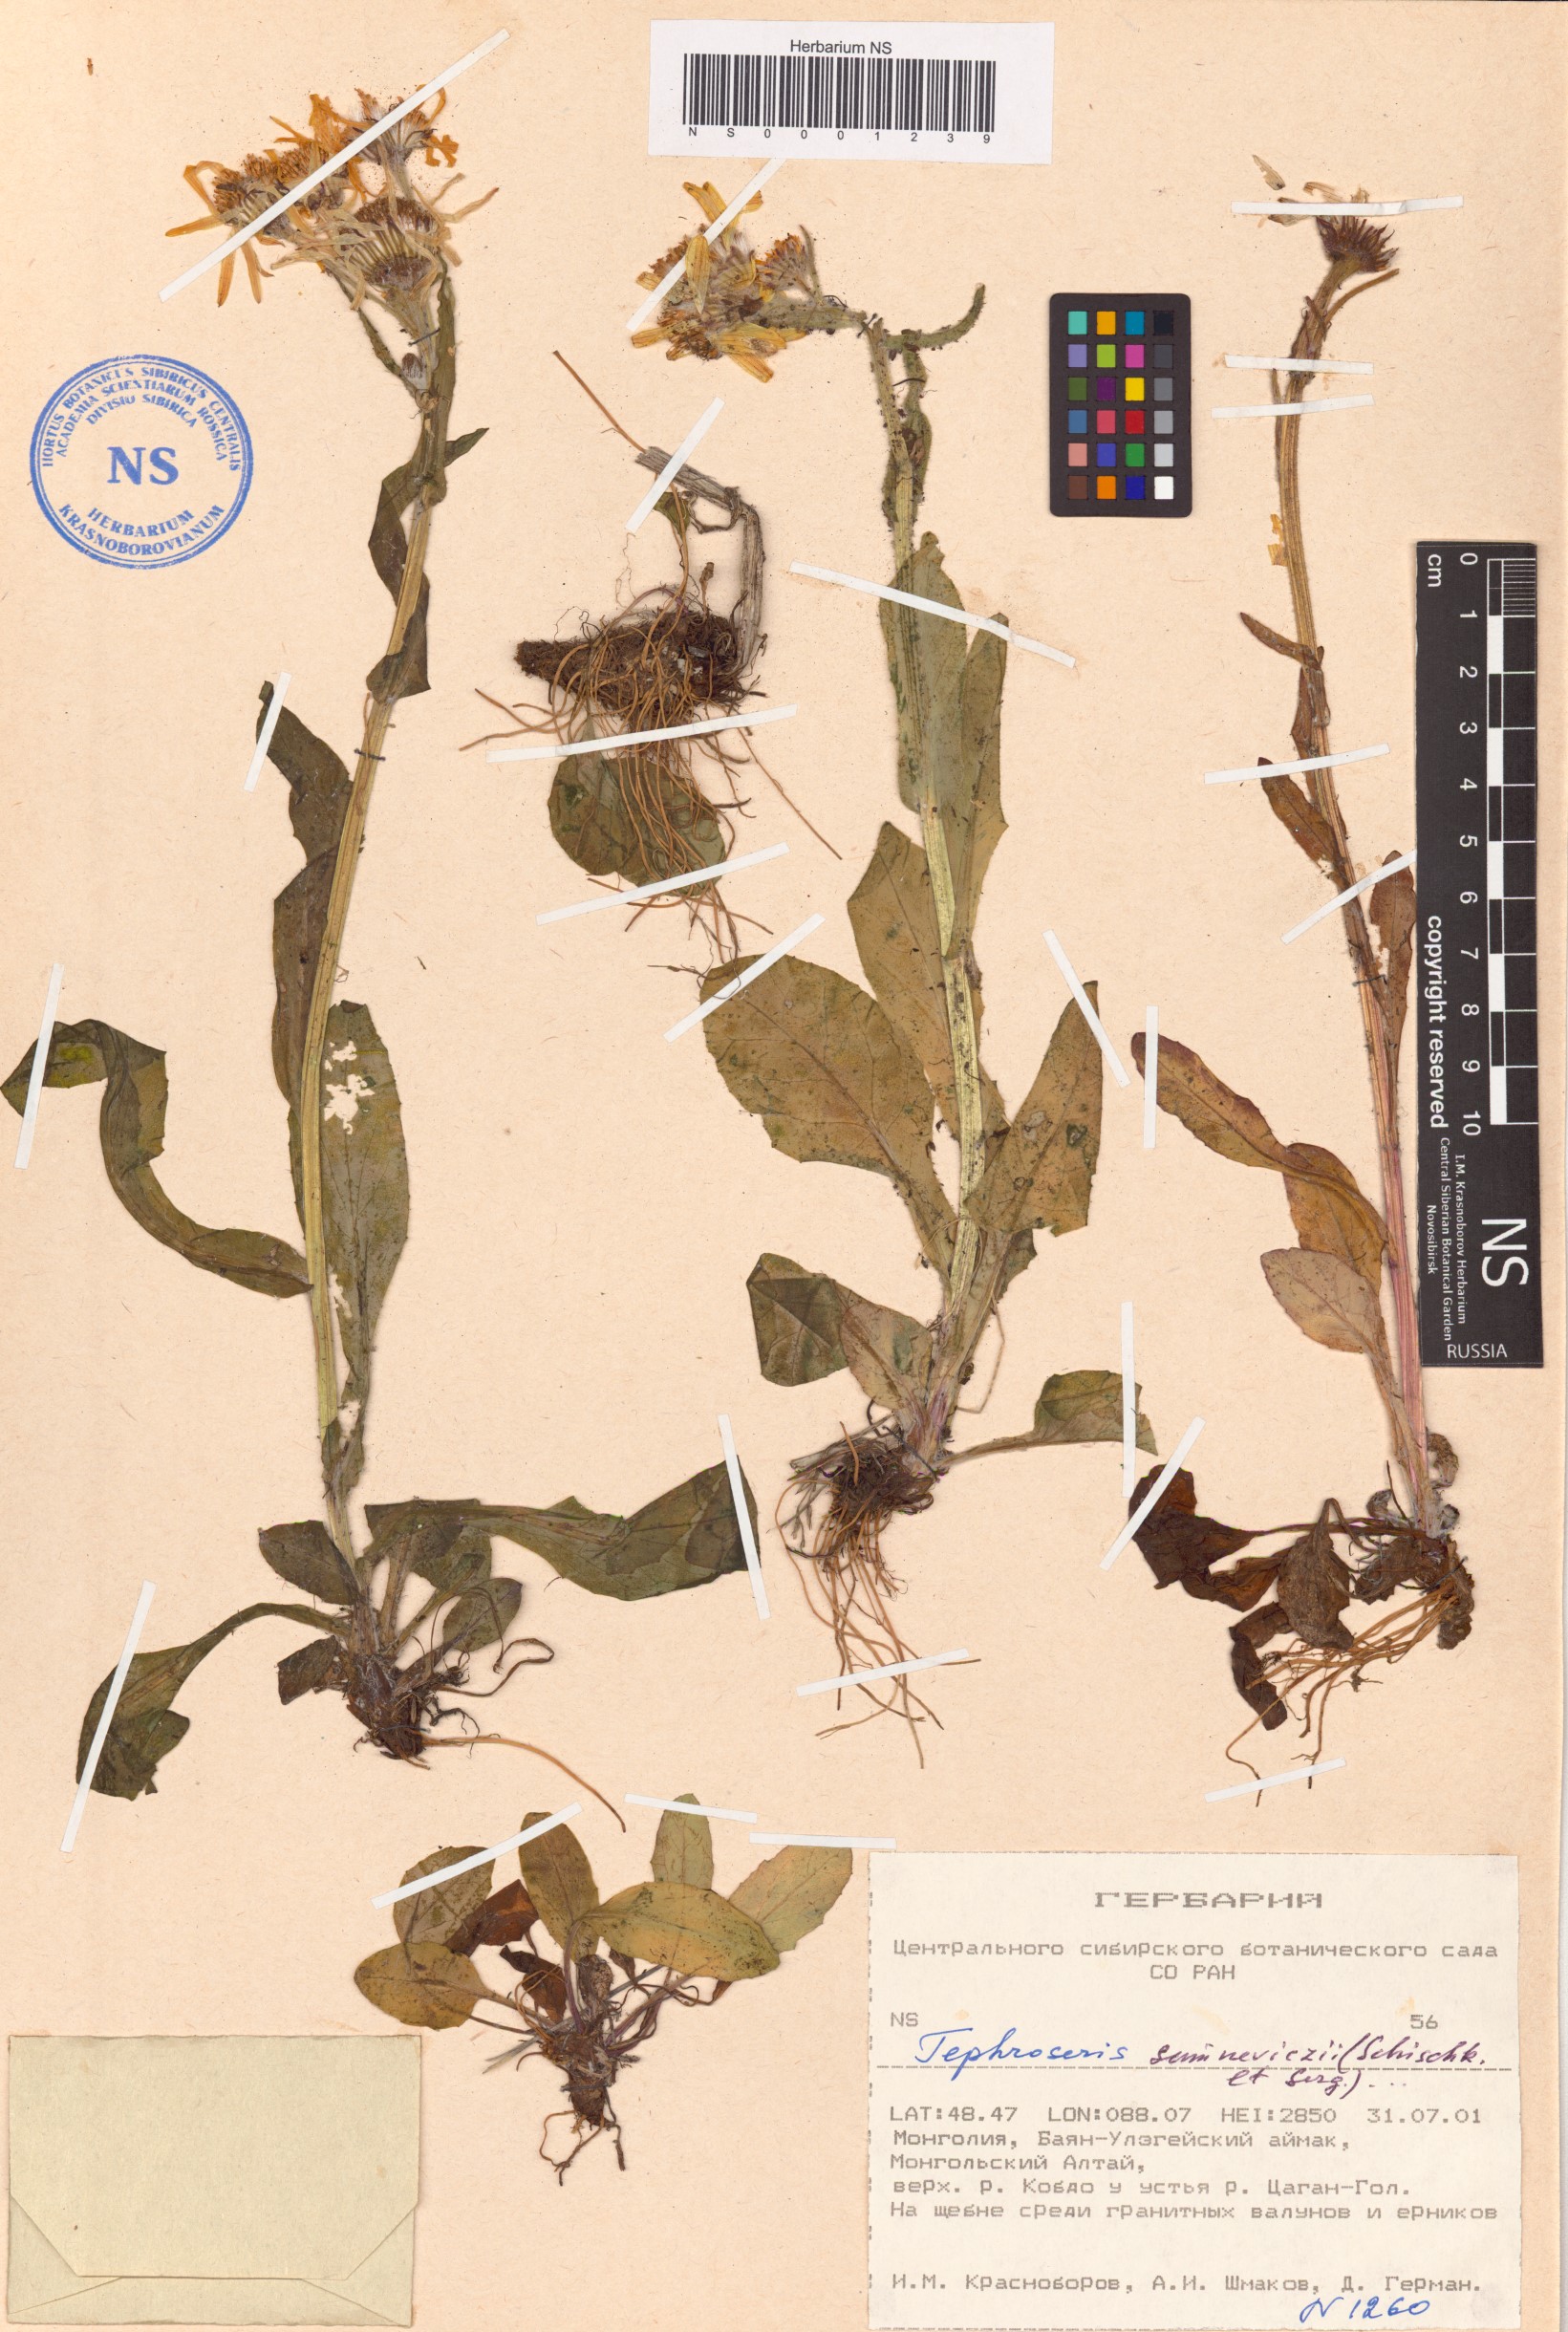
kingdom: Plantae
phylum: Tracheophyta
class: Magnoliopsida
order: Asterales
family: Asteraceae
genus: Tephroseris
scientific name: Tephroseris
